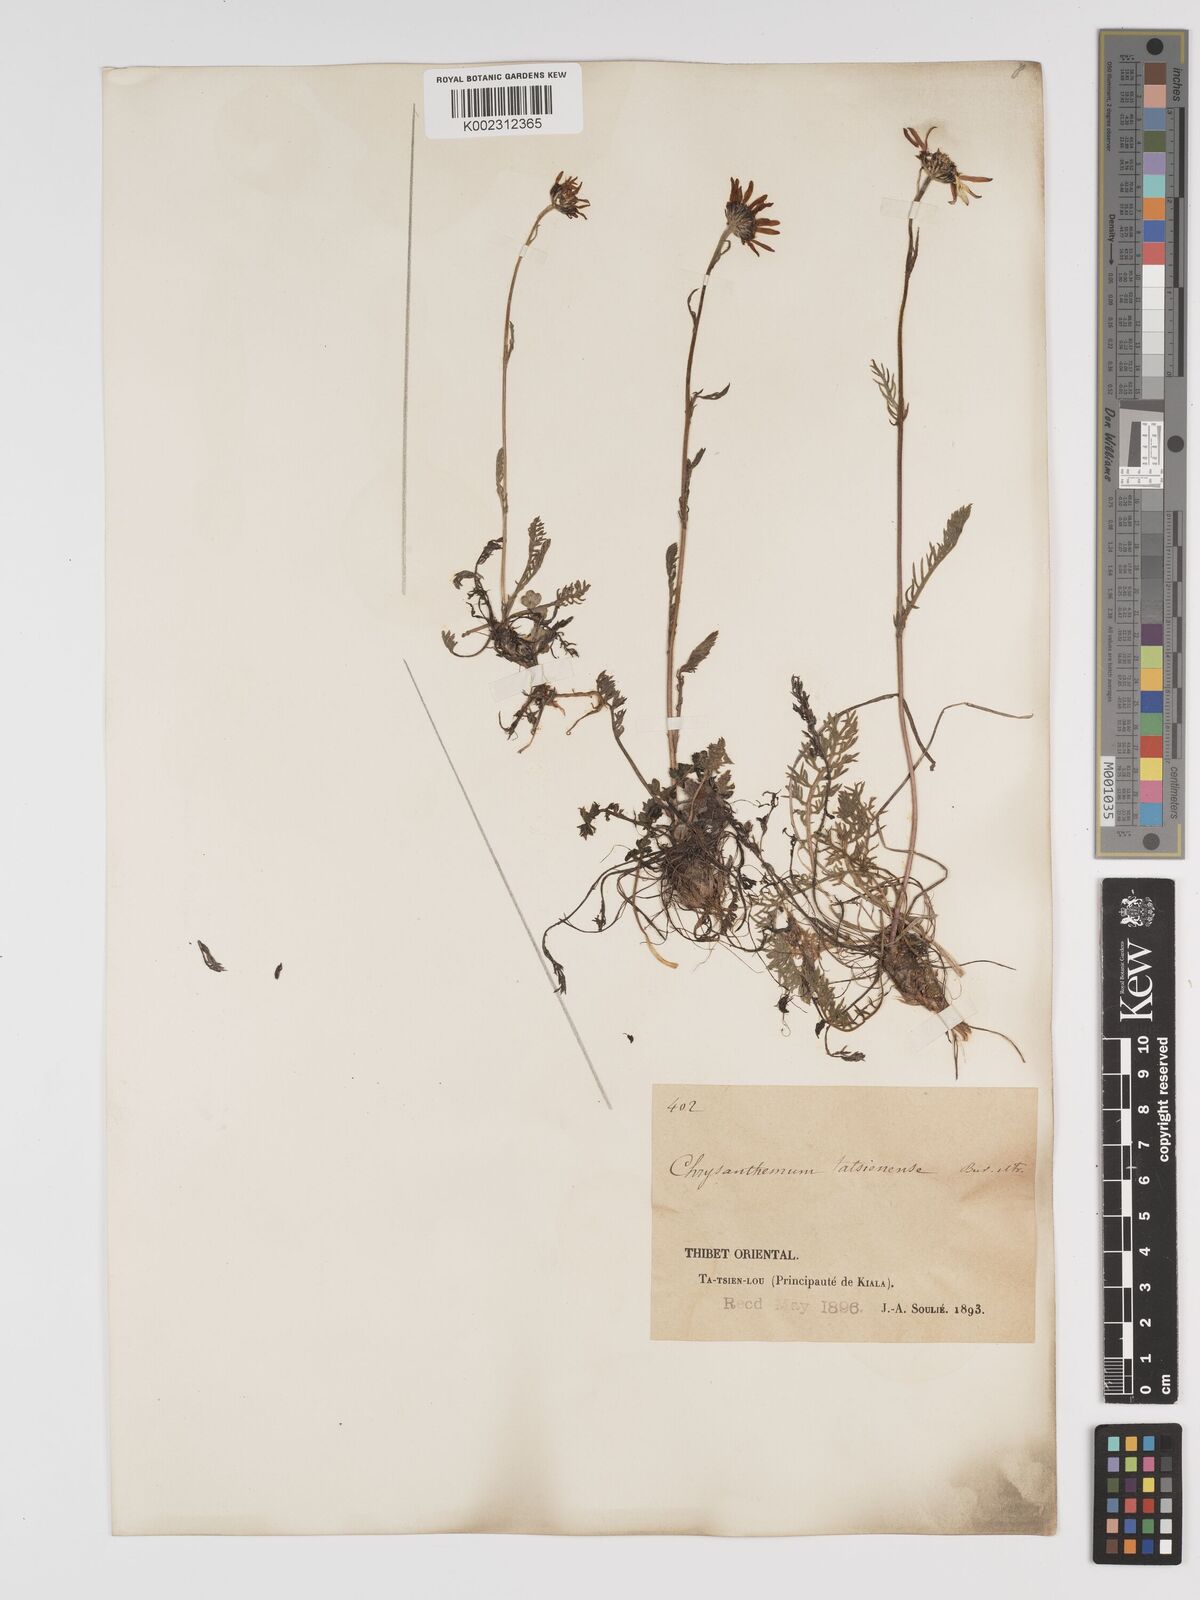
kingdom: Plantae
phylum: Tracheophyta
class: Magnoliopsida
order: Asterales
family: Asteraceae
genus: Tanacetum
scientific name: Tanacetum tatsienense
